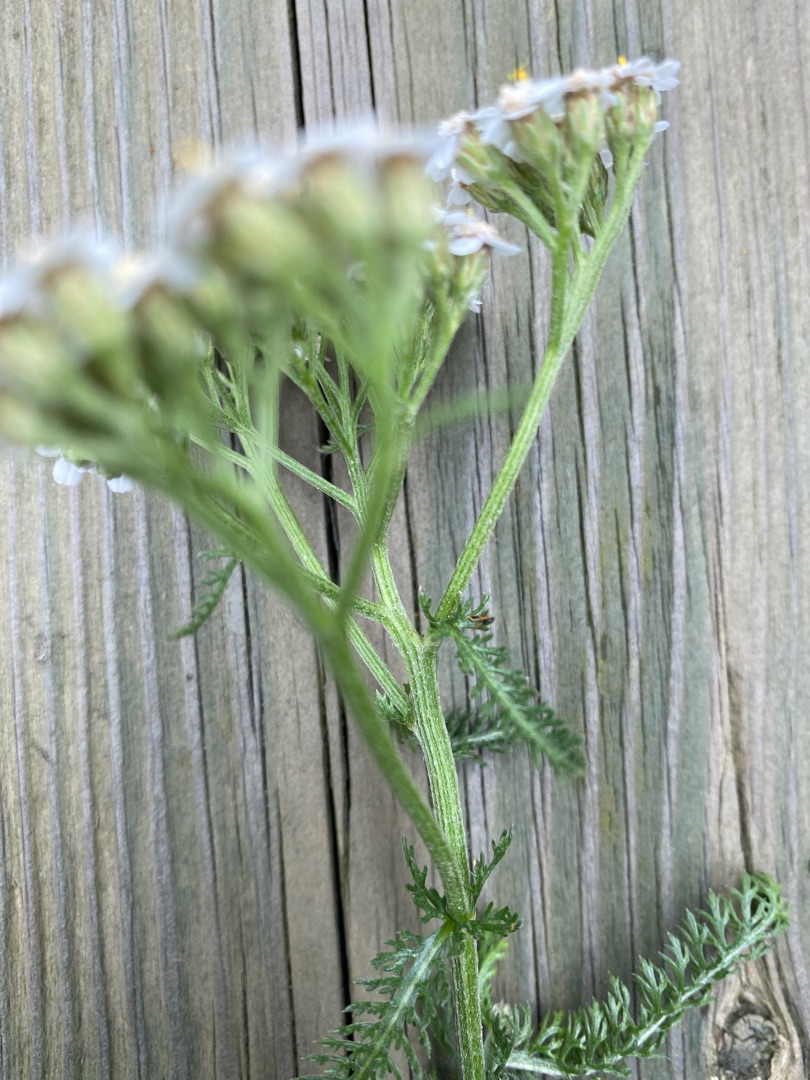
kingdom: Plantae
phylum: Tracheophyta
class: Magnoliopsida
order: Asterales
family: Asteraceae
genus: Achillea
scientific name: Achillea millefolium
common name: Almindelig røllike
